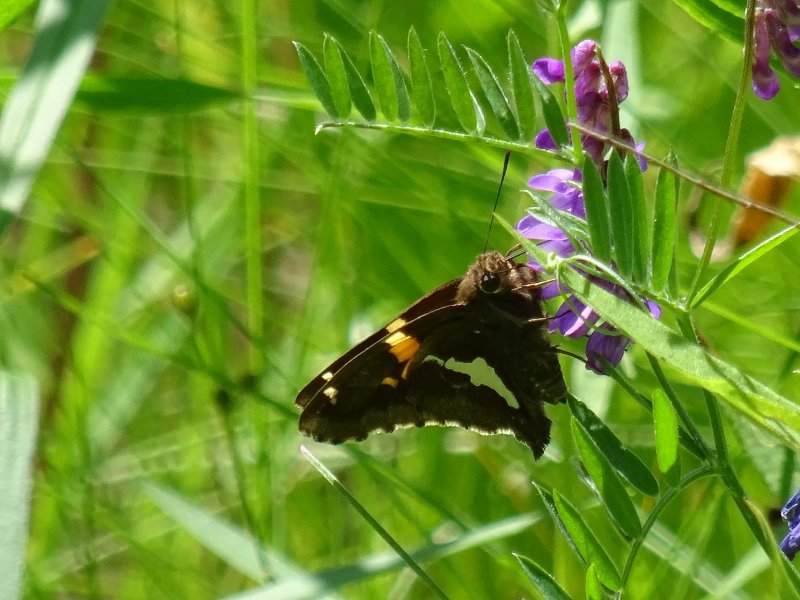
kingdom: Animalia
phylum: Arthropoda
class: Insecta
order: Lepidoptera
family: Hesperiidae
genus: Epargyreus
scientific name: Epargyreus clarus
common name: Silver-spotted Skipper
